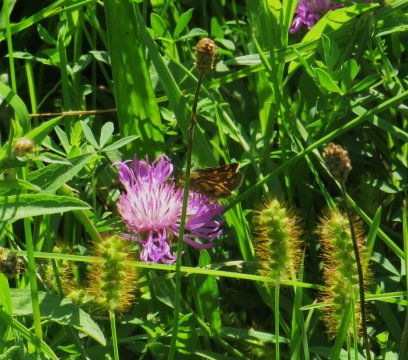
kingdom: Animalia
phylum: Arthropoda
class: Insecta
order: Lepidoptera
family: Hesperiidae
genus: Polites
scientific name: Polites coras
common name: Peck's Skipper
